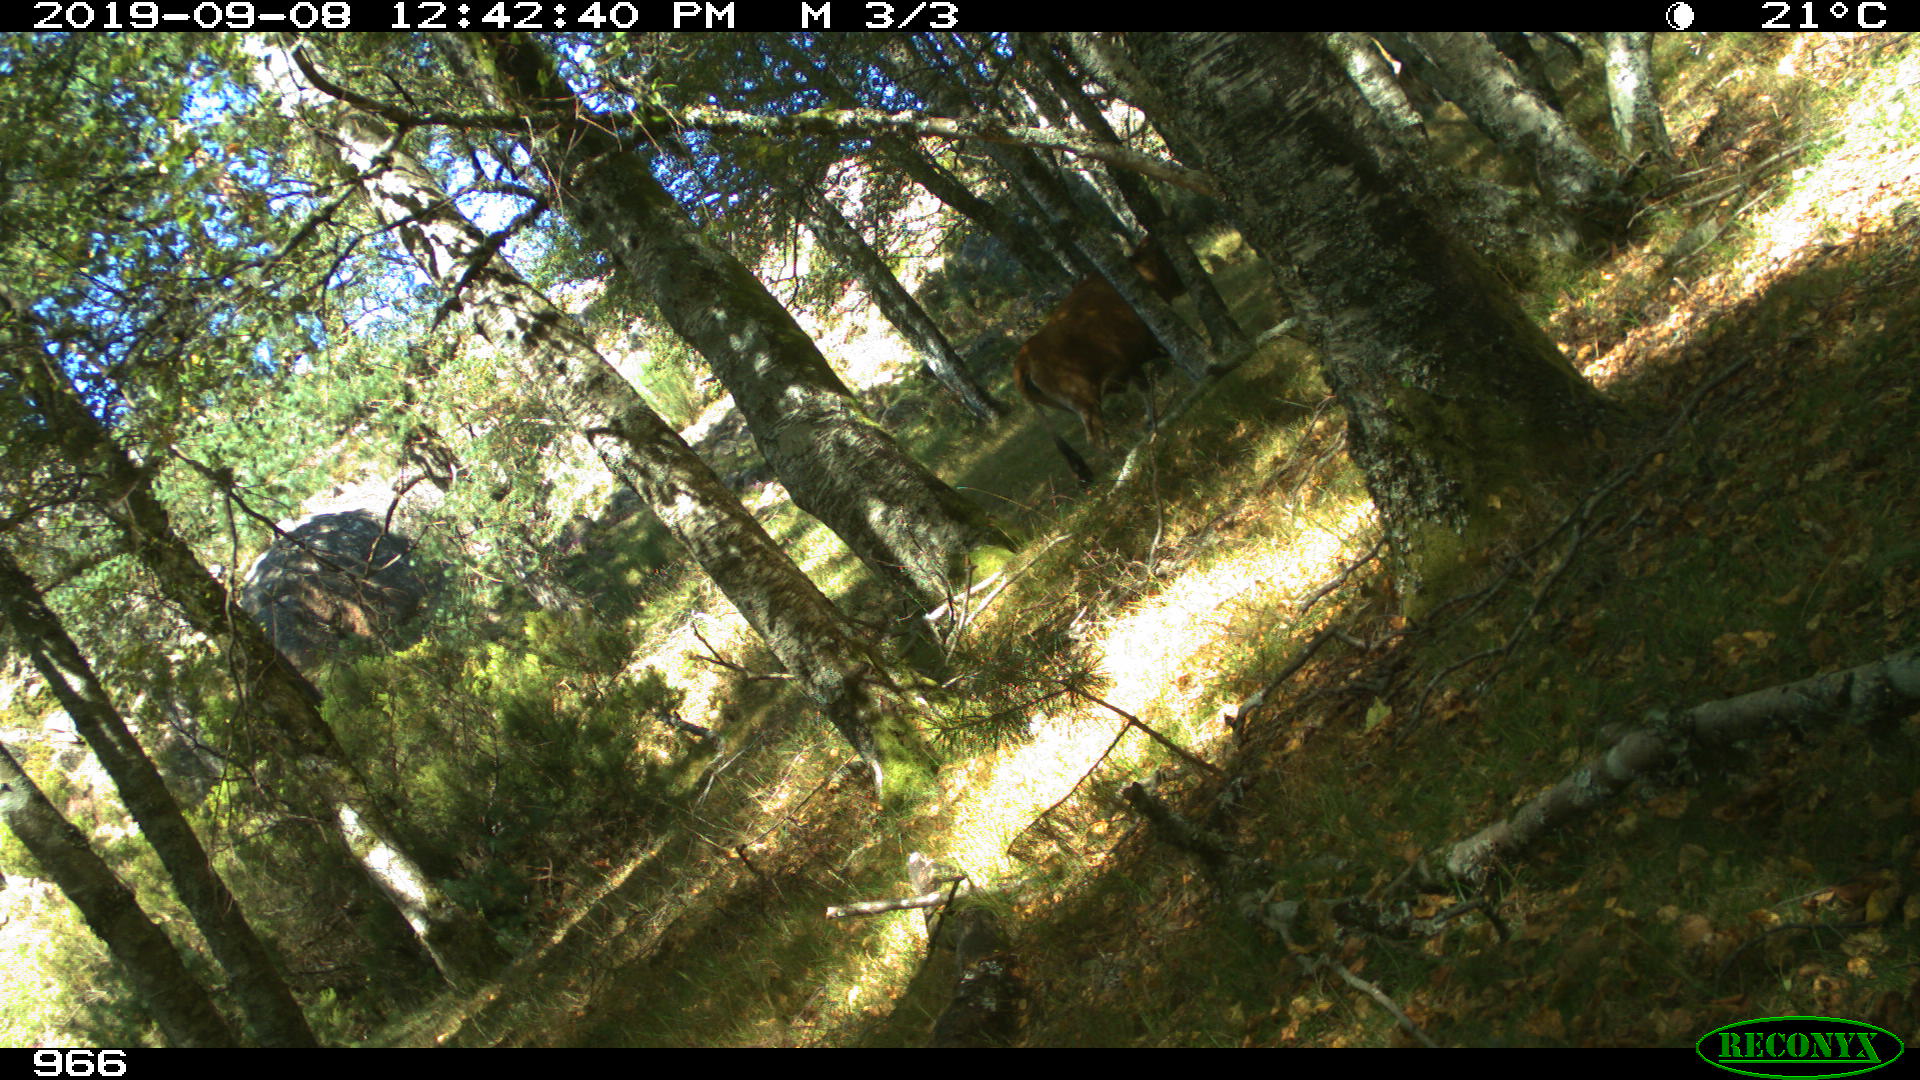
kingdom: Animalia
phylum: Chordata
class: Mammalia
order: Artiodactyla
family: Bovidae
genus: Bos
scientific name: Bos taurus
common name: Domesticated cattle
